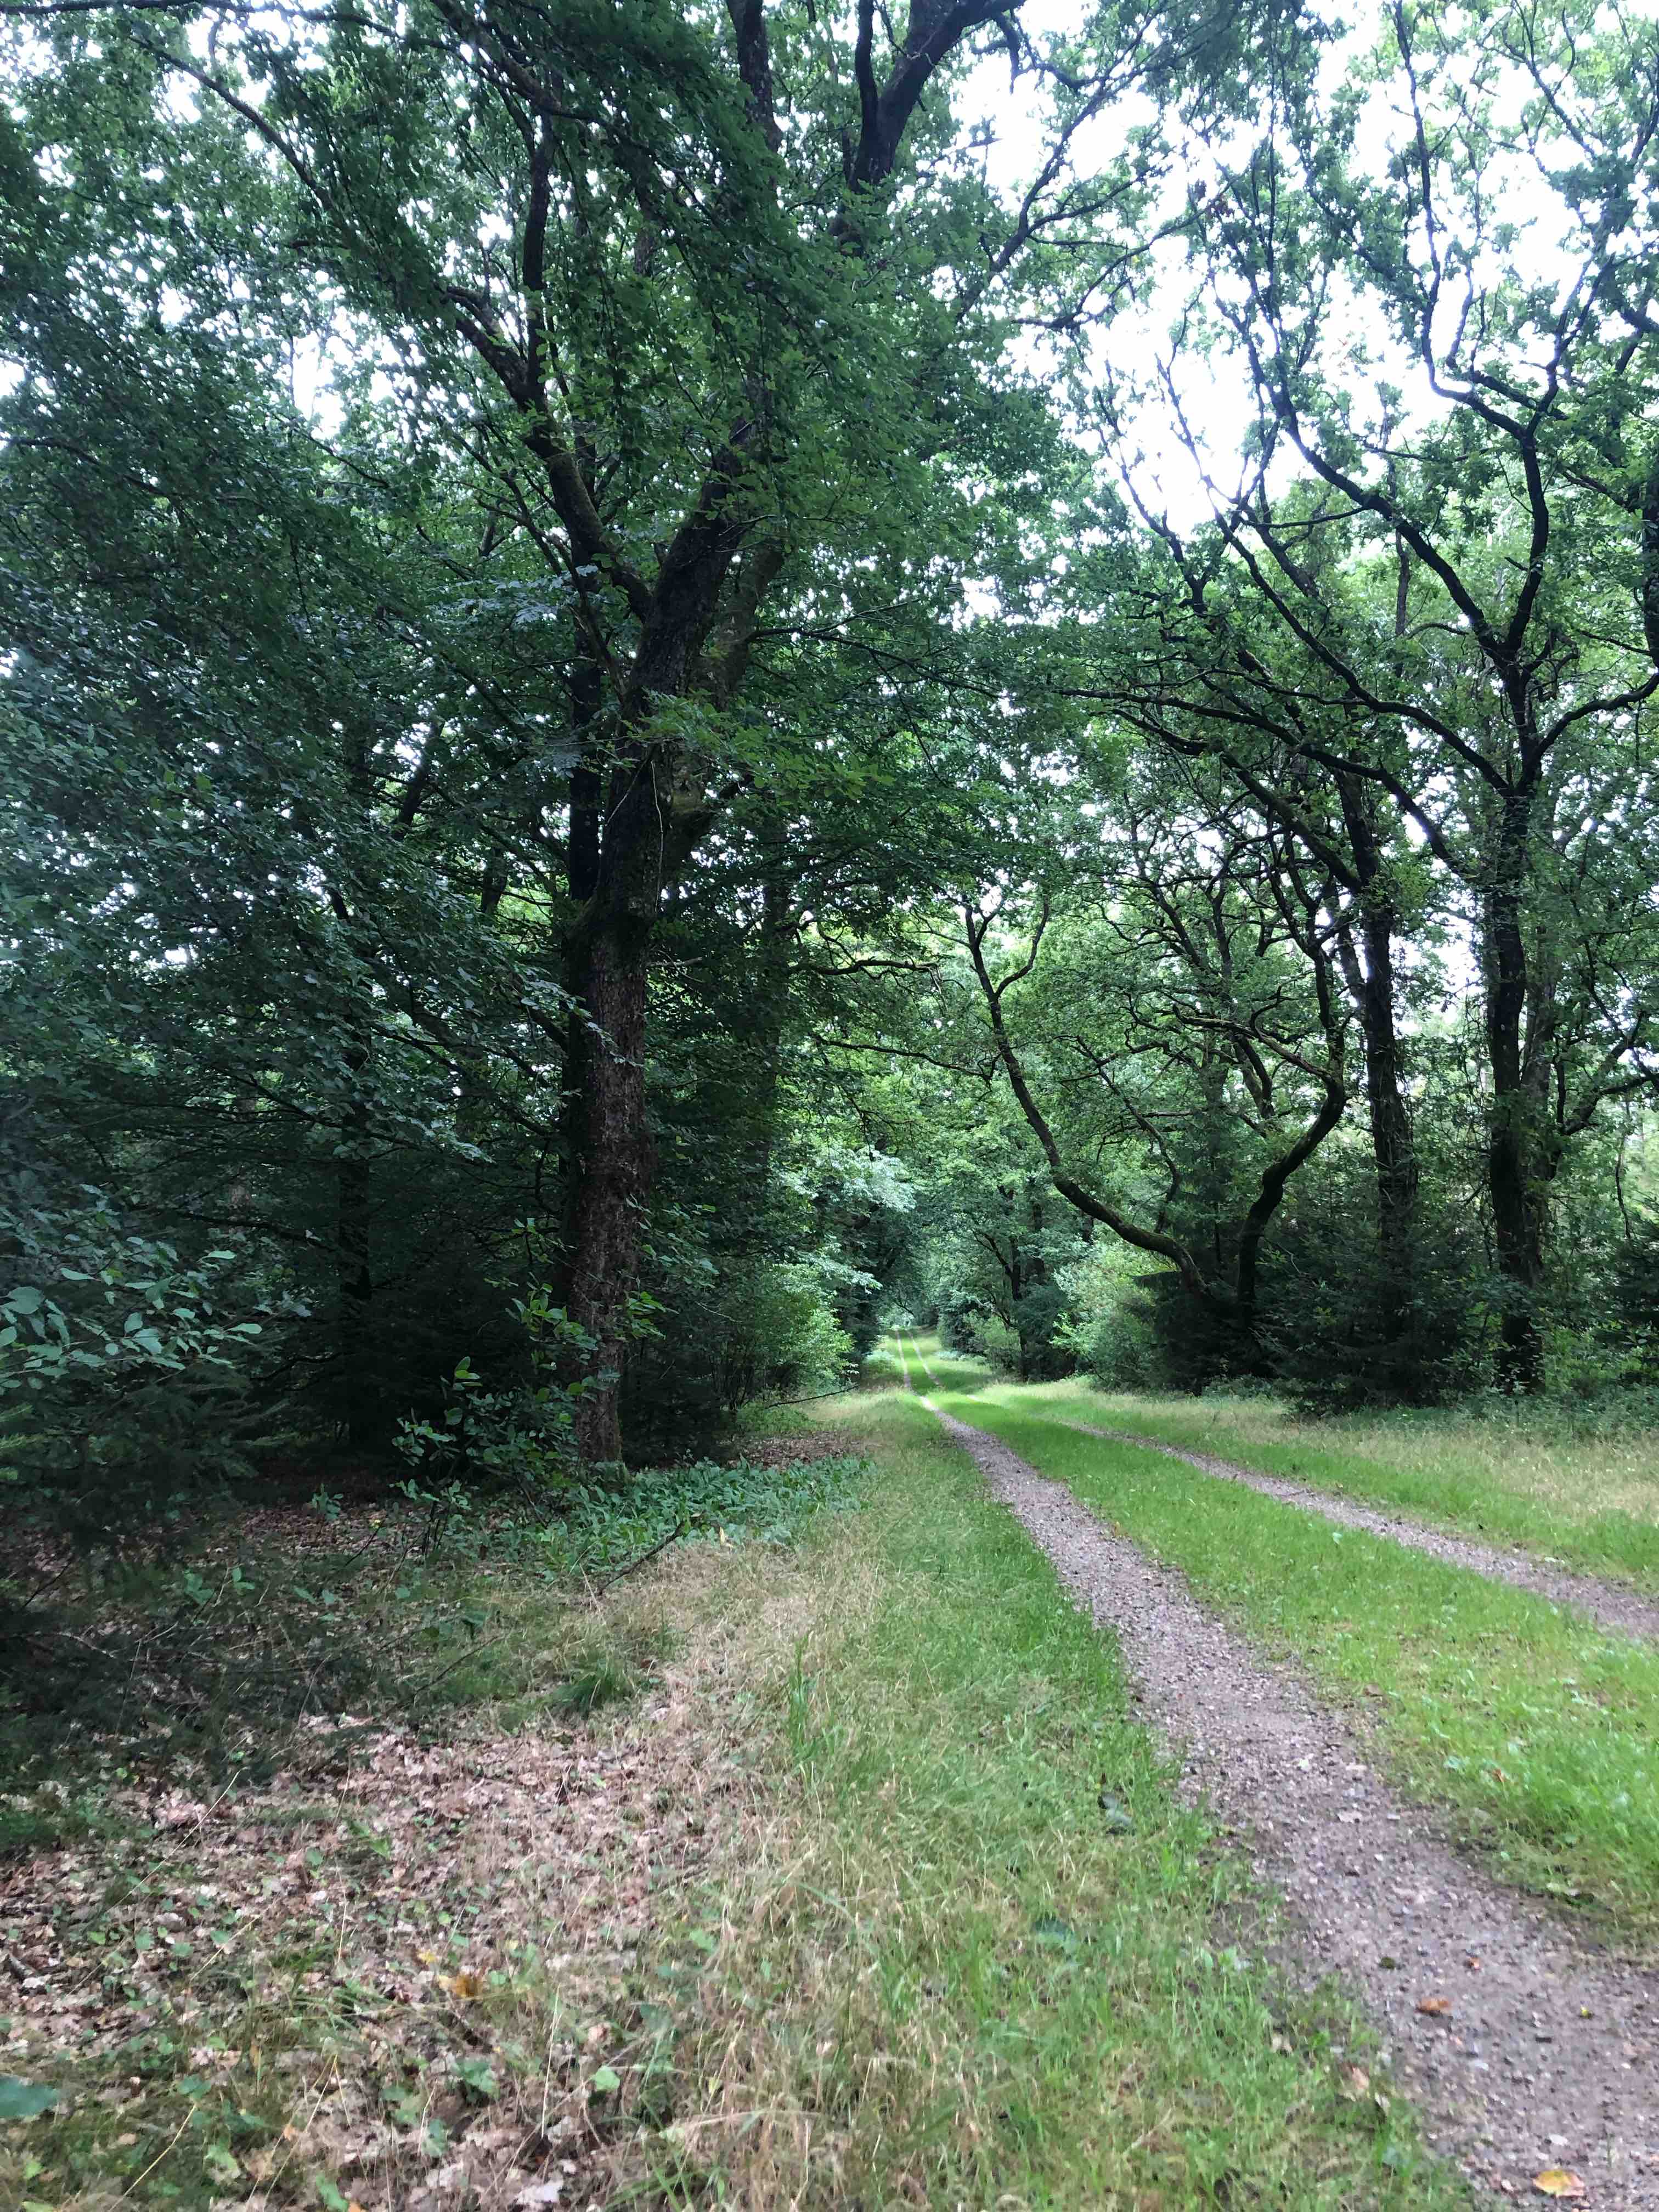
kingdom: Fungi
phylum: Basidiomycota
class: Agaricomycetes
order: Russulales
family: Russulaceae
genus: Russula
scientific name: Russula risigallina
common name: abrikos-skørhat
